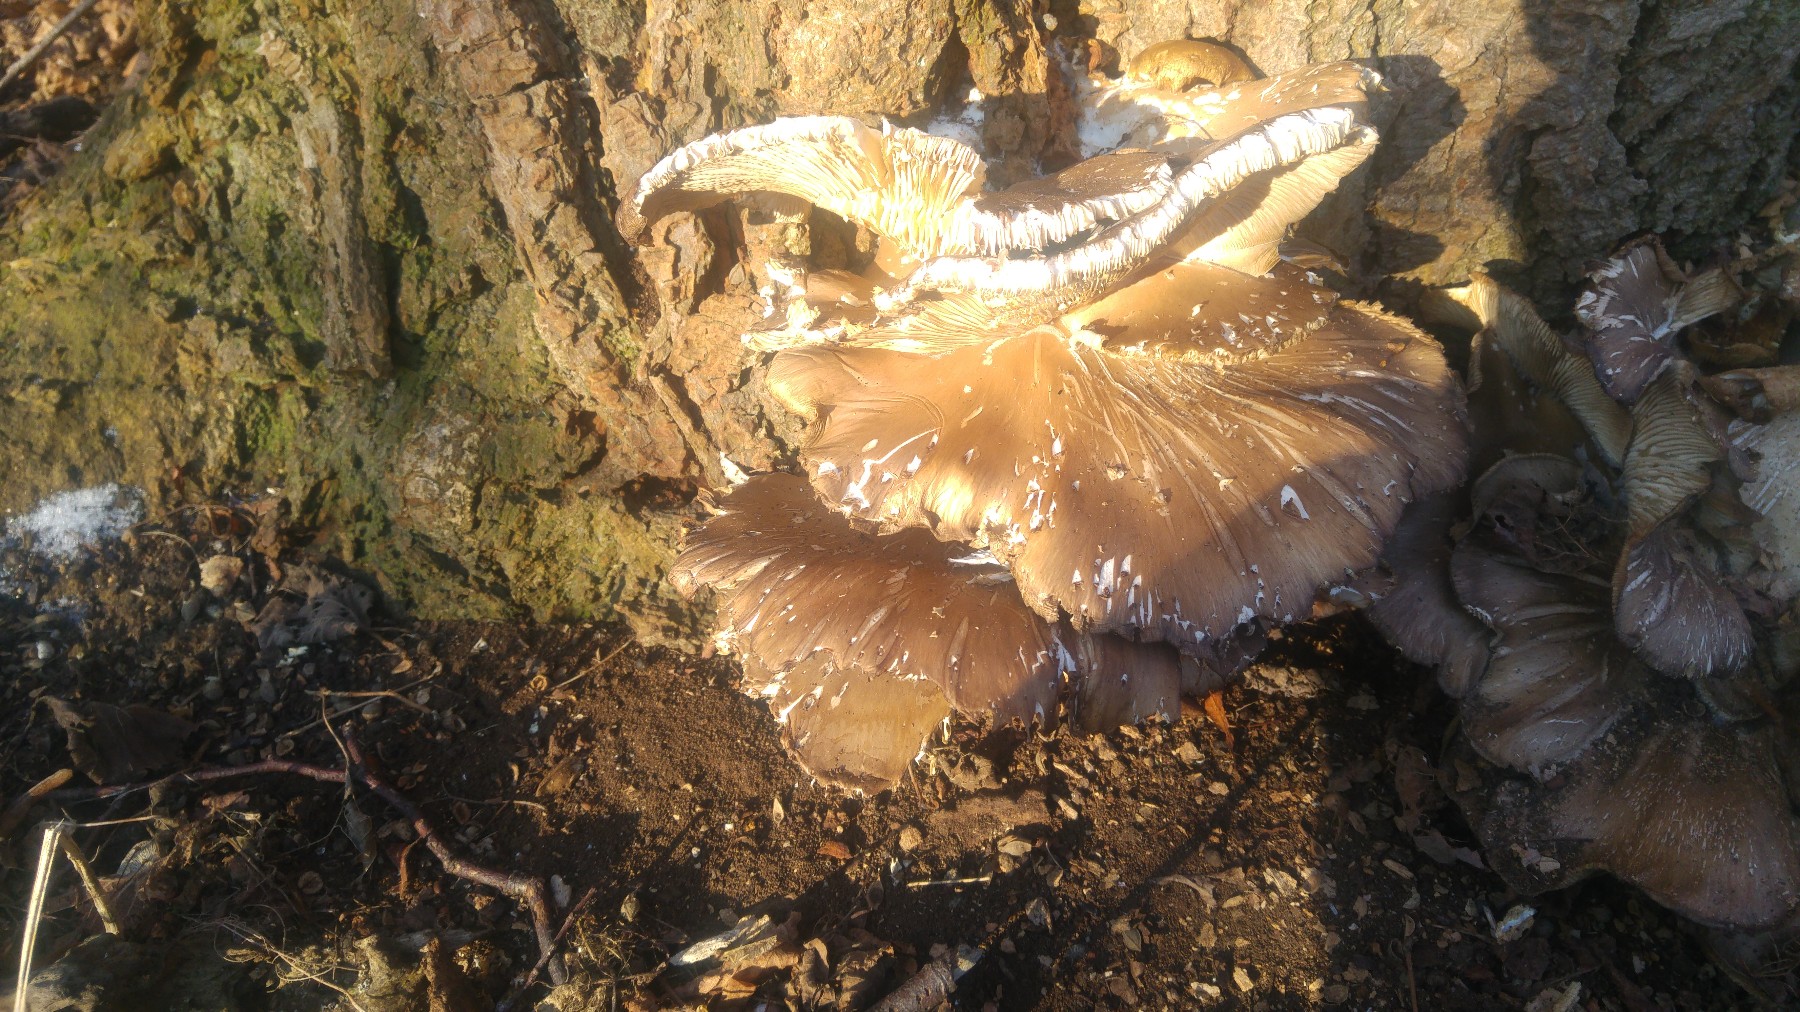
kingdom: Fungi
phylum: Basidiomycota
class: Agaricomycetes
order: Agaricales
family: Pleurotaceae
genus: Pleurotus
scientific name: Pleurotus ostreatus
